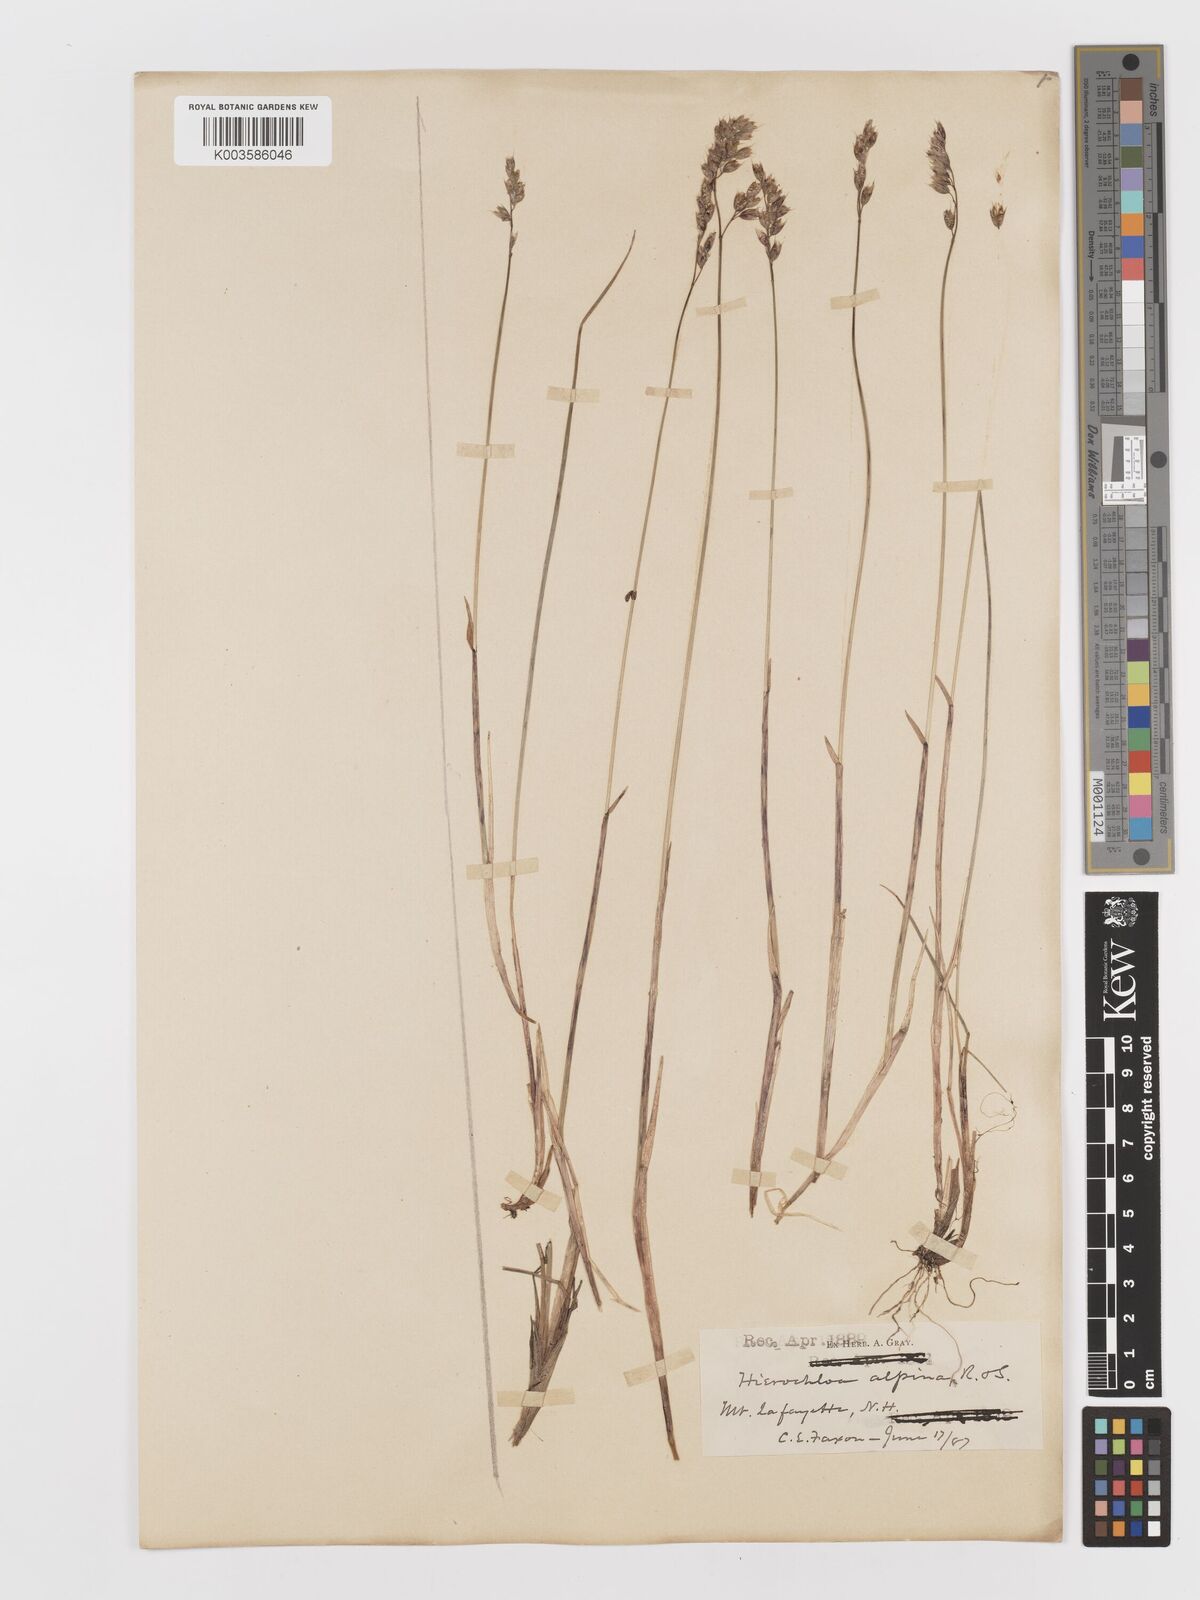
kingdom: Plantae
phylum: Tracheophyta
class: Liliopsida
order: Poales
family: Poaceae
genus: Anthoxanthum
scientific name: Anthoxanthum monticola
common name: Alpine sweetgrass
